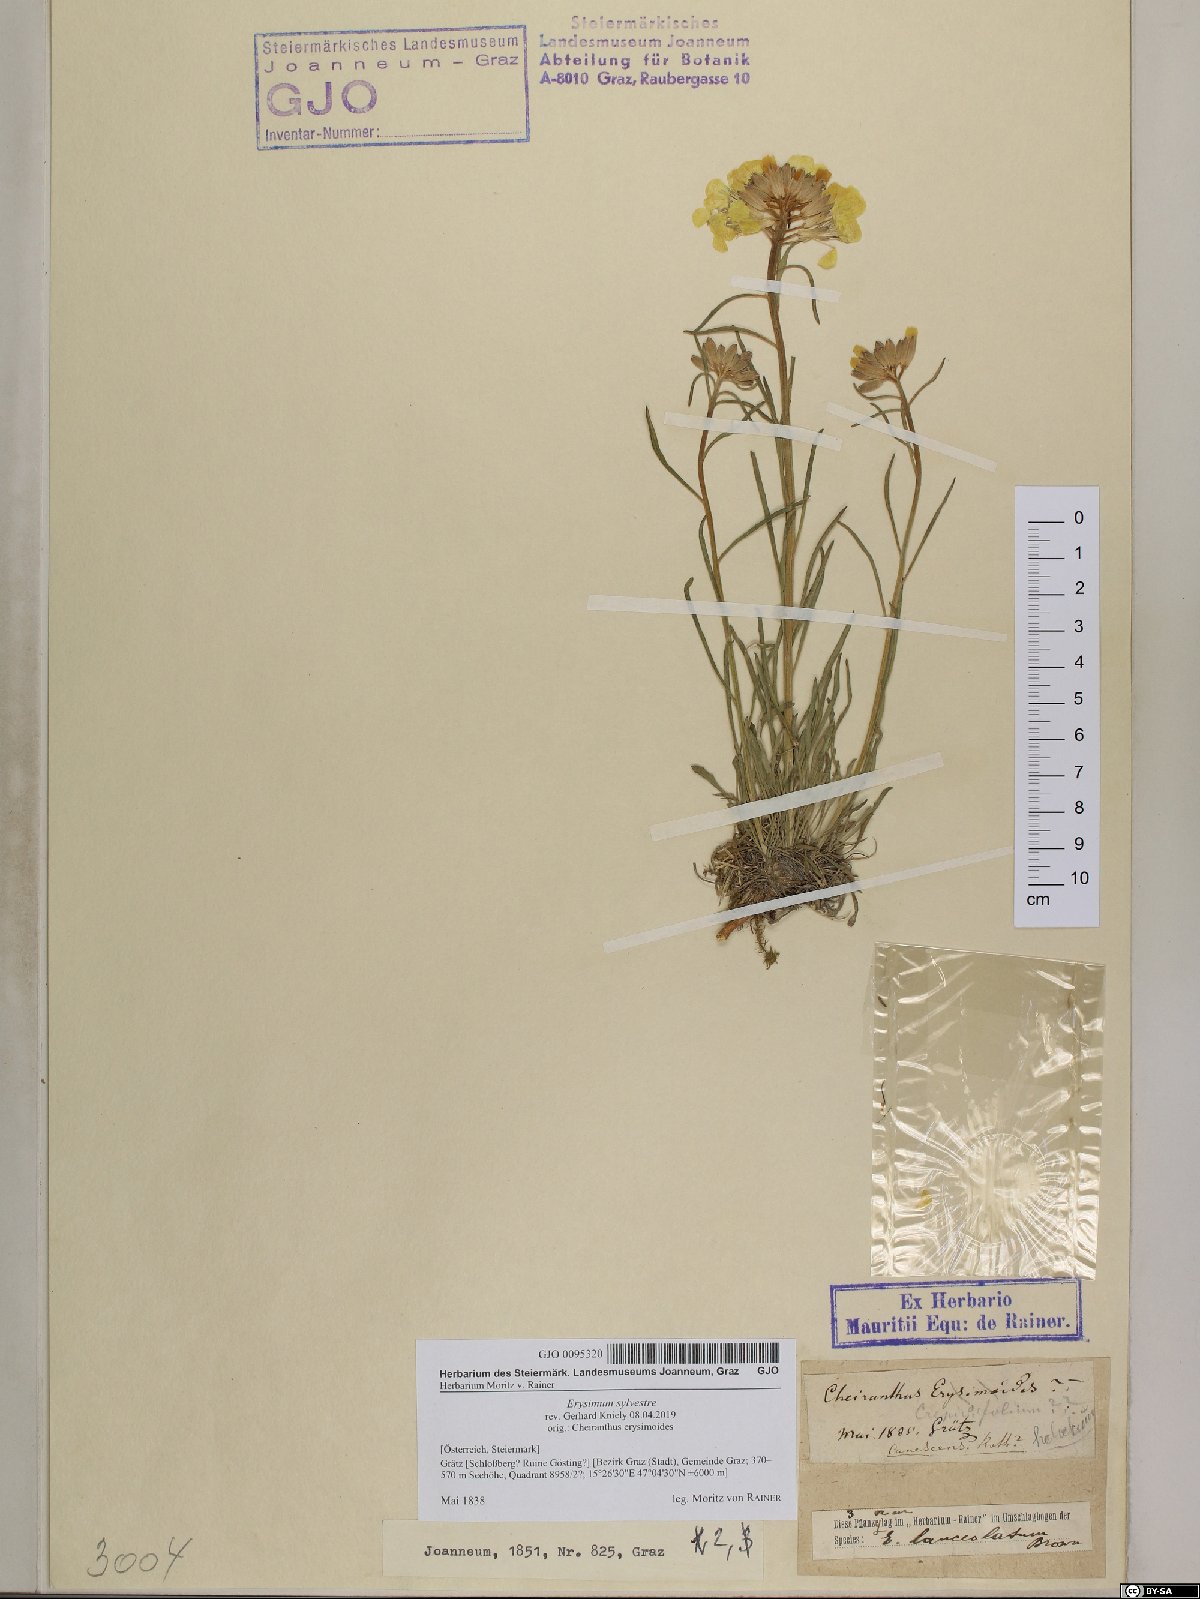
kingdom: Plantae
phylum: Tracheophyta
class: Magnoliopsida
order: Brassicales
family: Brassicaceae
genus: Erysimum
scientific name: Erysimum sylvestre
